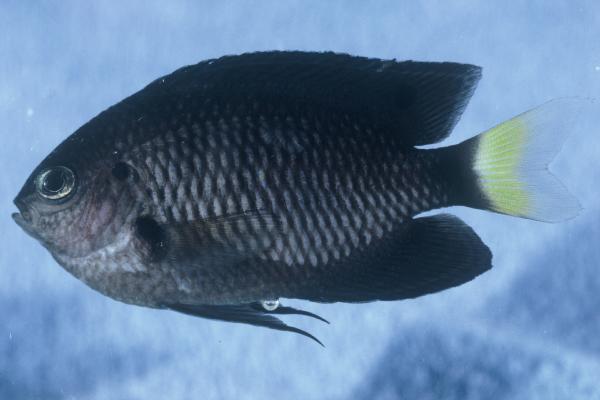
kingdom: Animalia
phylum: Chordata
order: Perciformes
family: Pomacentridae
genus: Pomacentrus
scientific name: Pomacentrus trichrourus
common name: Paletail damsel
